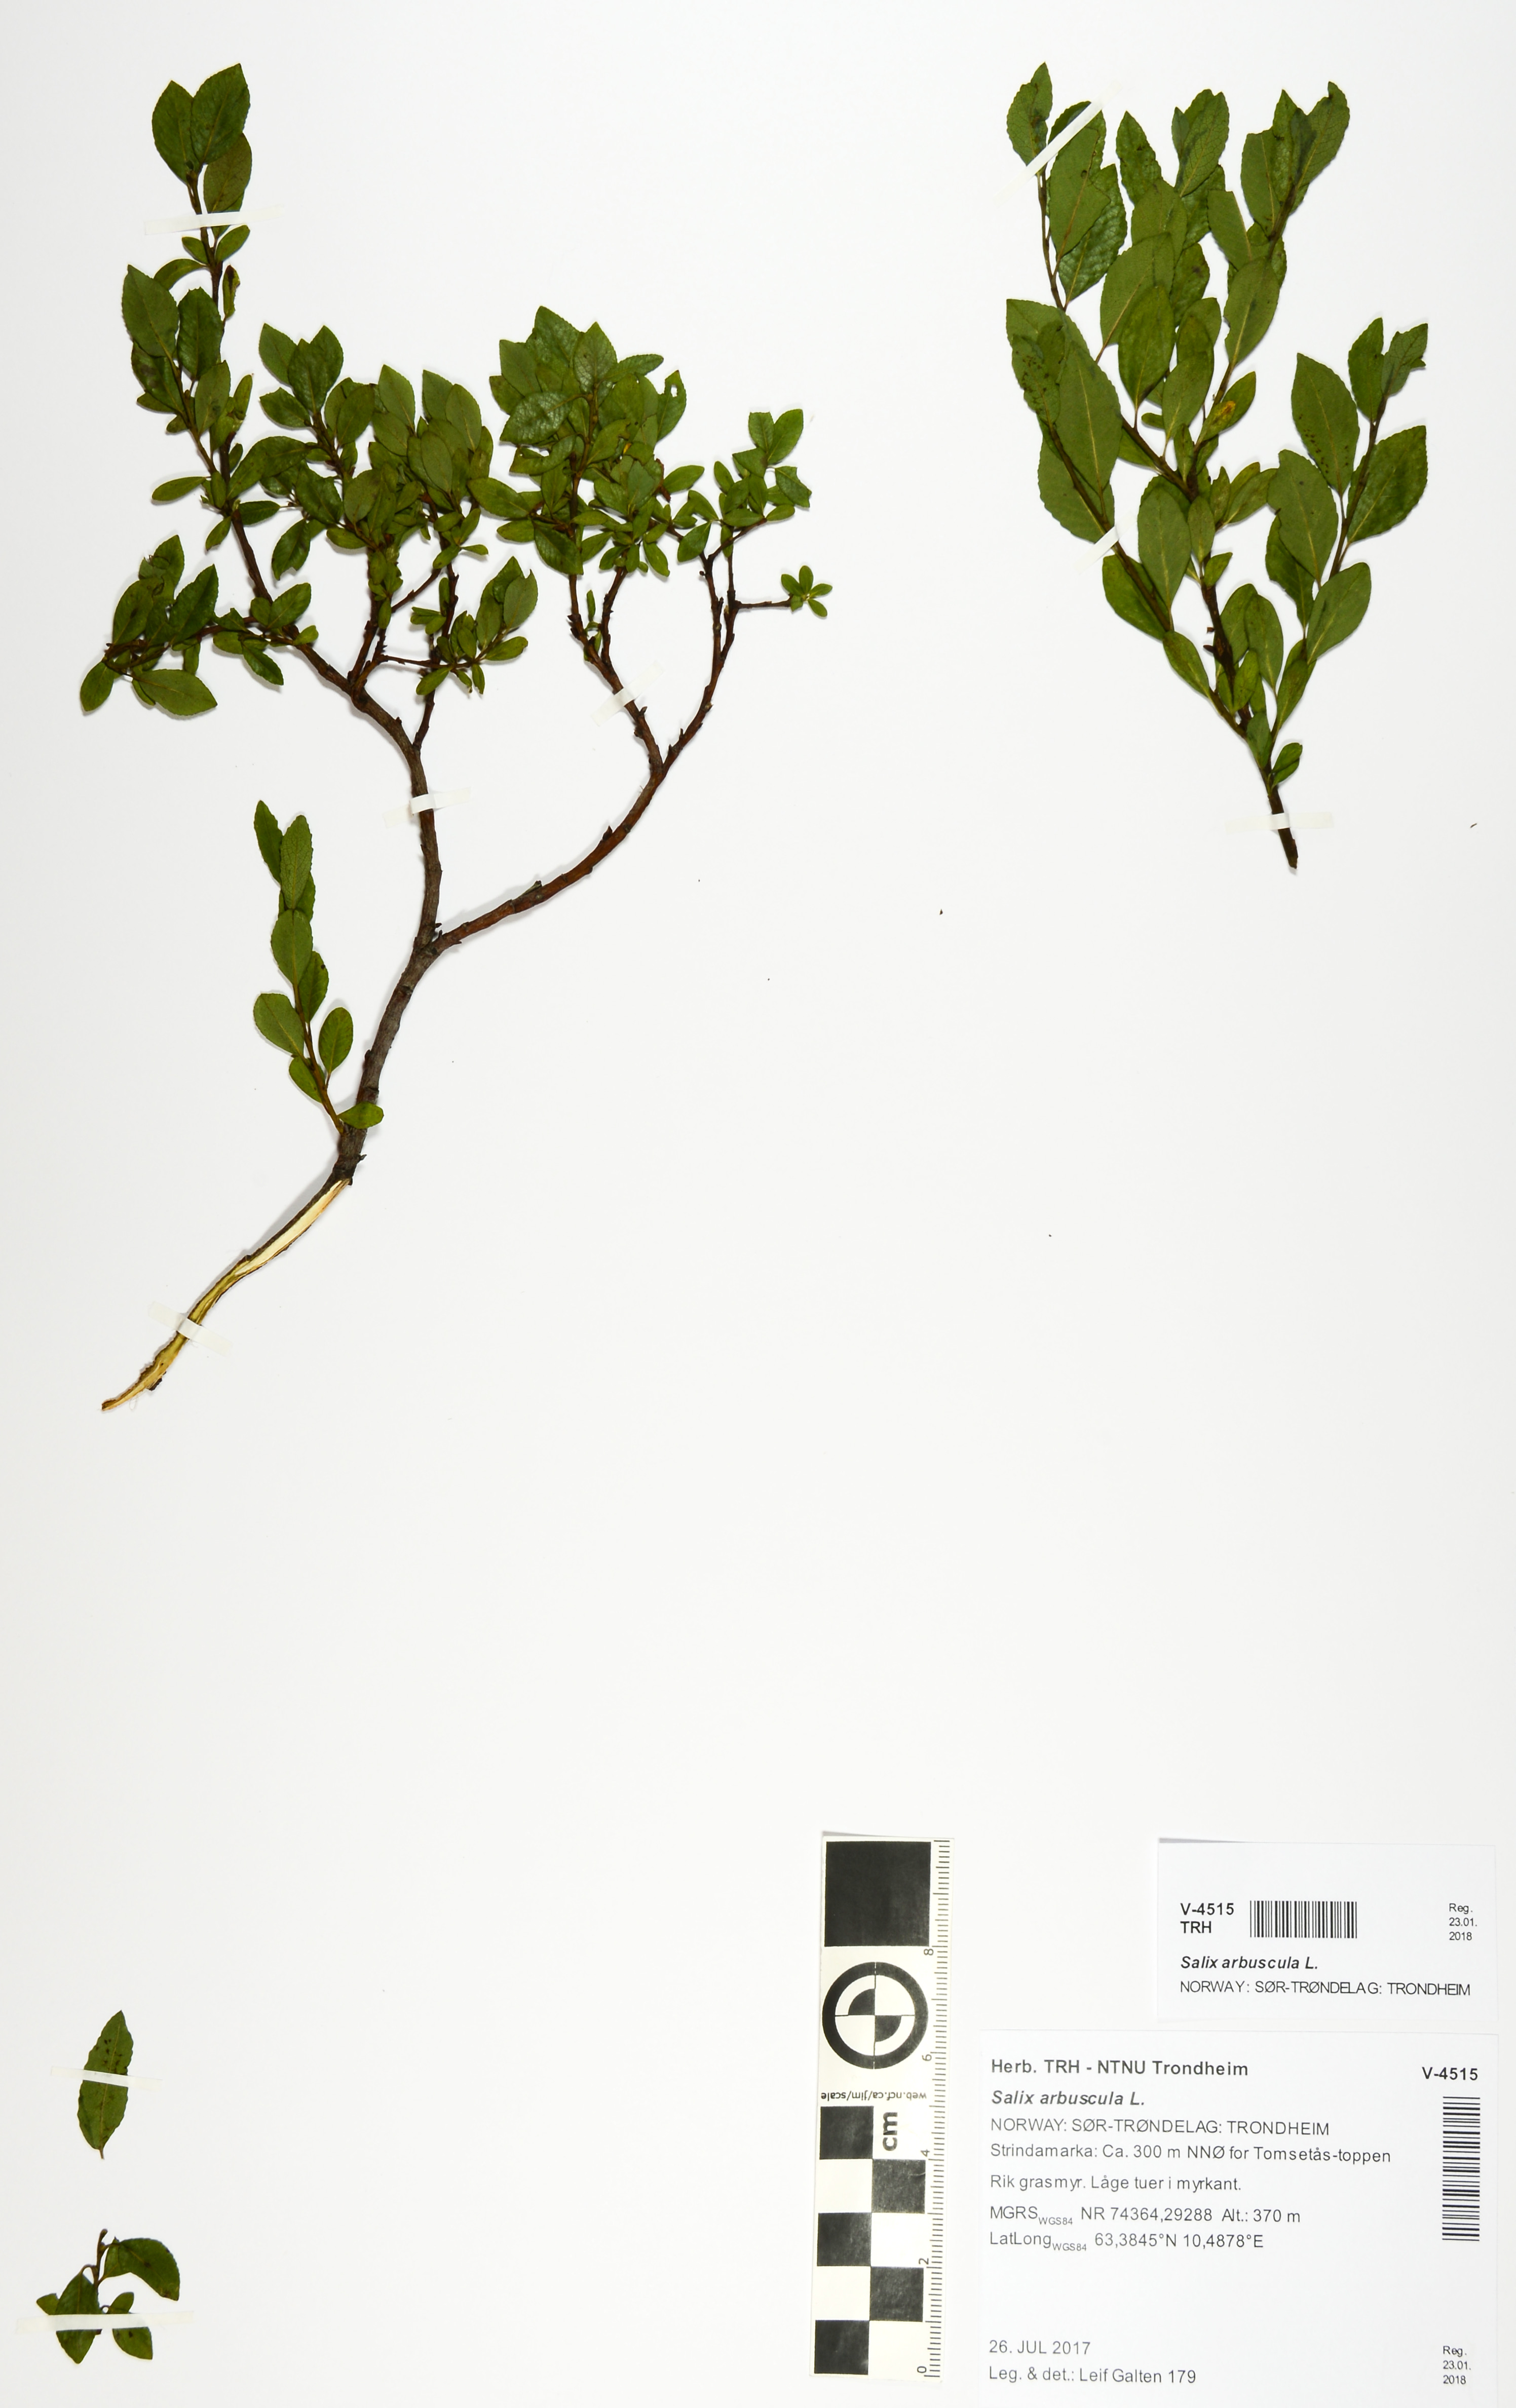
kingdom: Plantae
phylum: Tracheophyta
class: Magnoliopsida
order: Malpighiales
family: Salicaceae
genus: Salix
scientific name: Salix arbuscula
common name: Mountain willow
